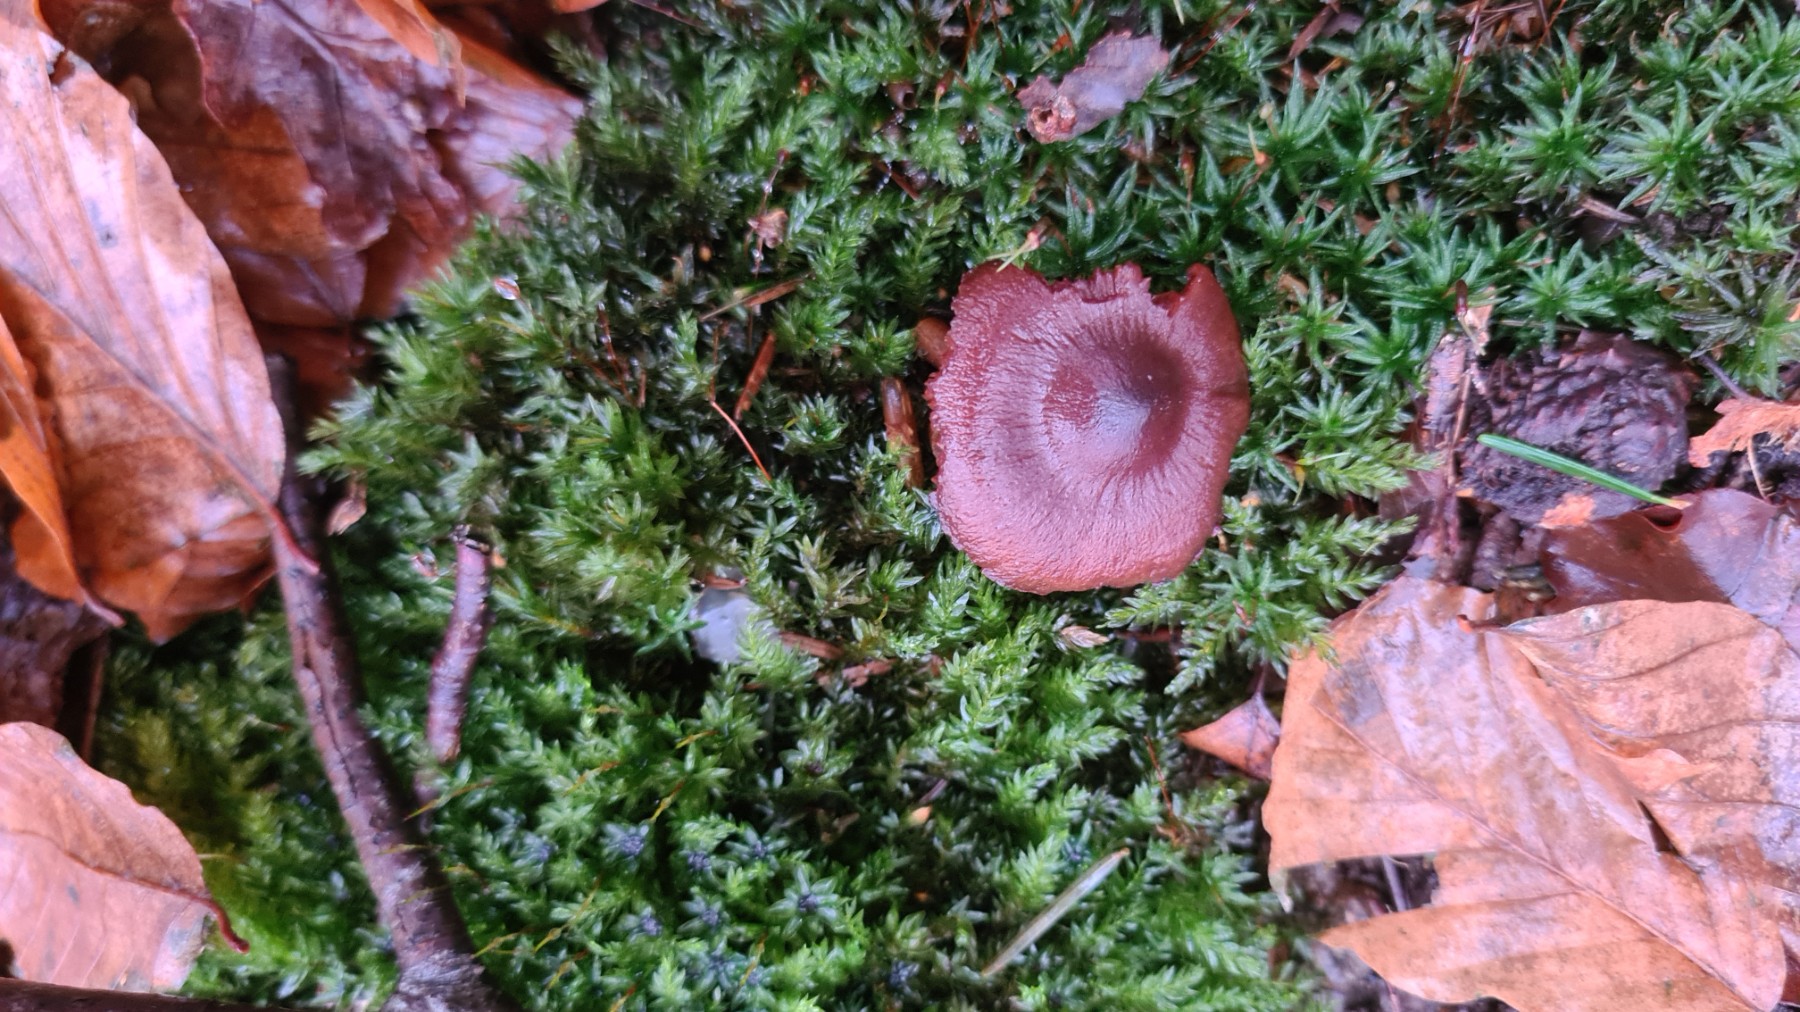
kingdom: Fungi
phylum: Basidiomycota
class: Agaricomycetes
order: Agaricales
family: Cortinariaceae
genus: Cortinarius
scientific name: Cortinarius
